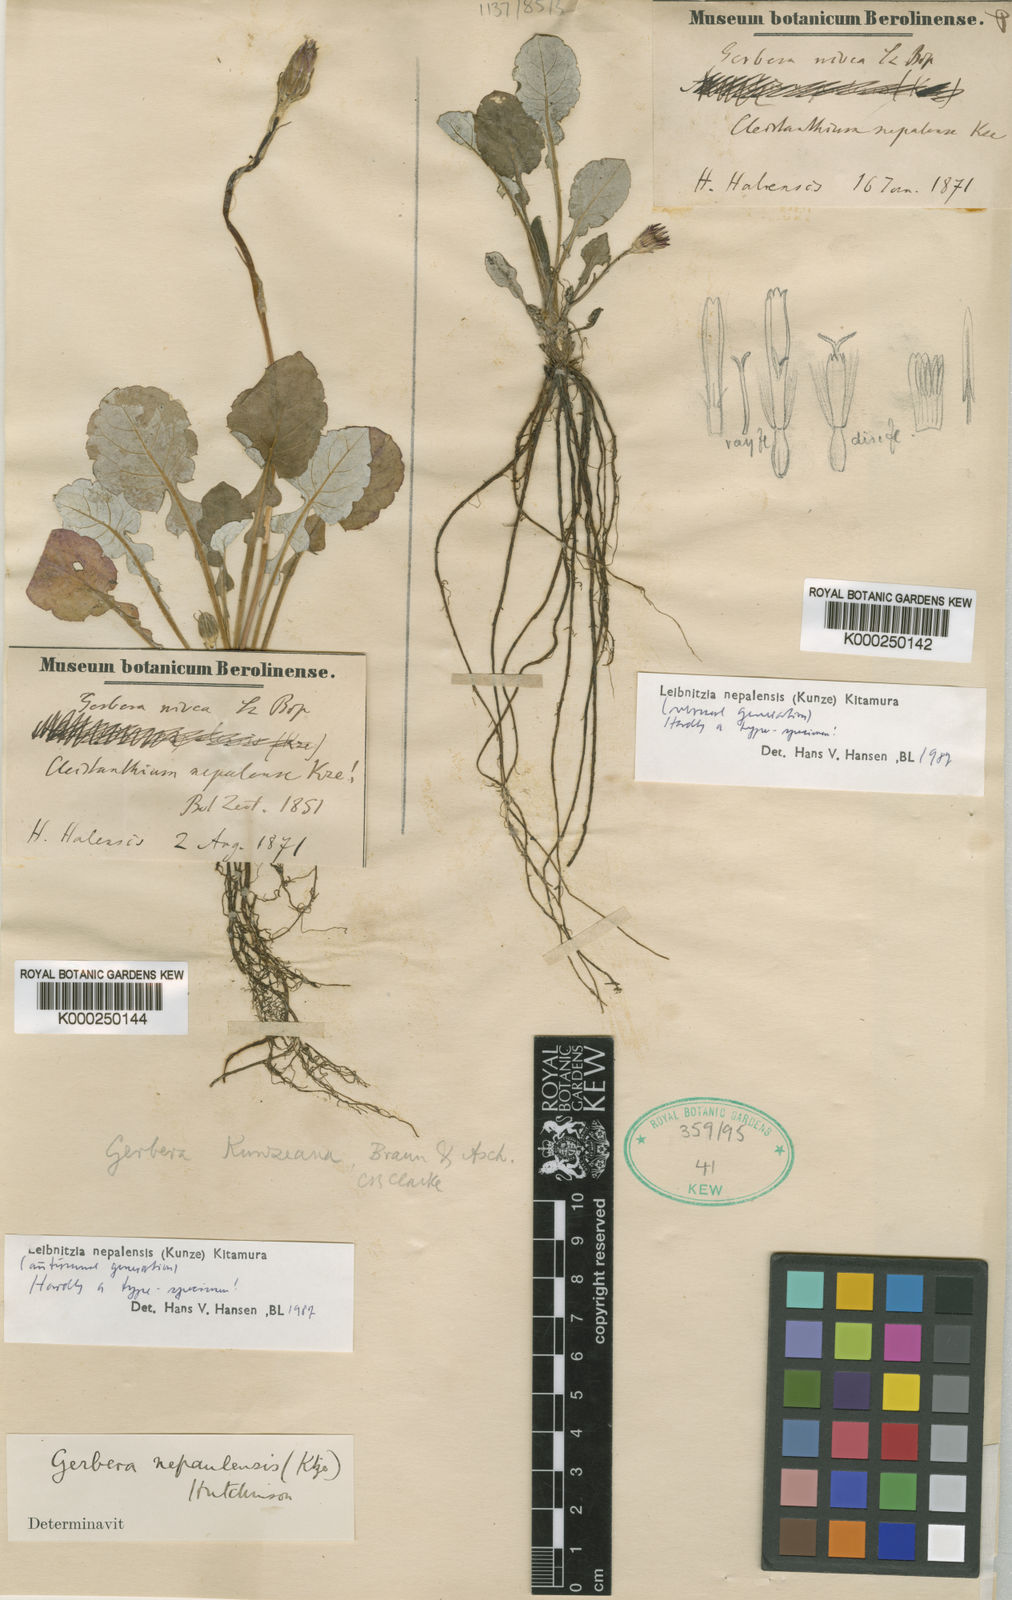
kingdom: Plantae
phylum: Tracheophyta
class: Magnoliopsida
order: Asterales
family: Asteraceae
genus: Leibnitzia
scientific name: Leibnitzia nepalensis
